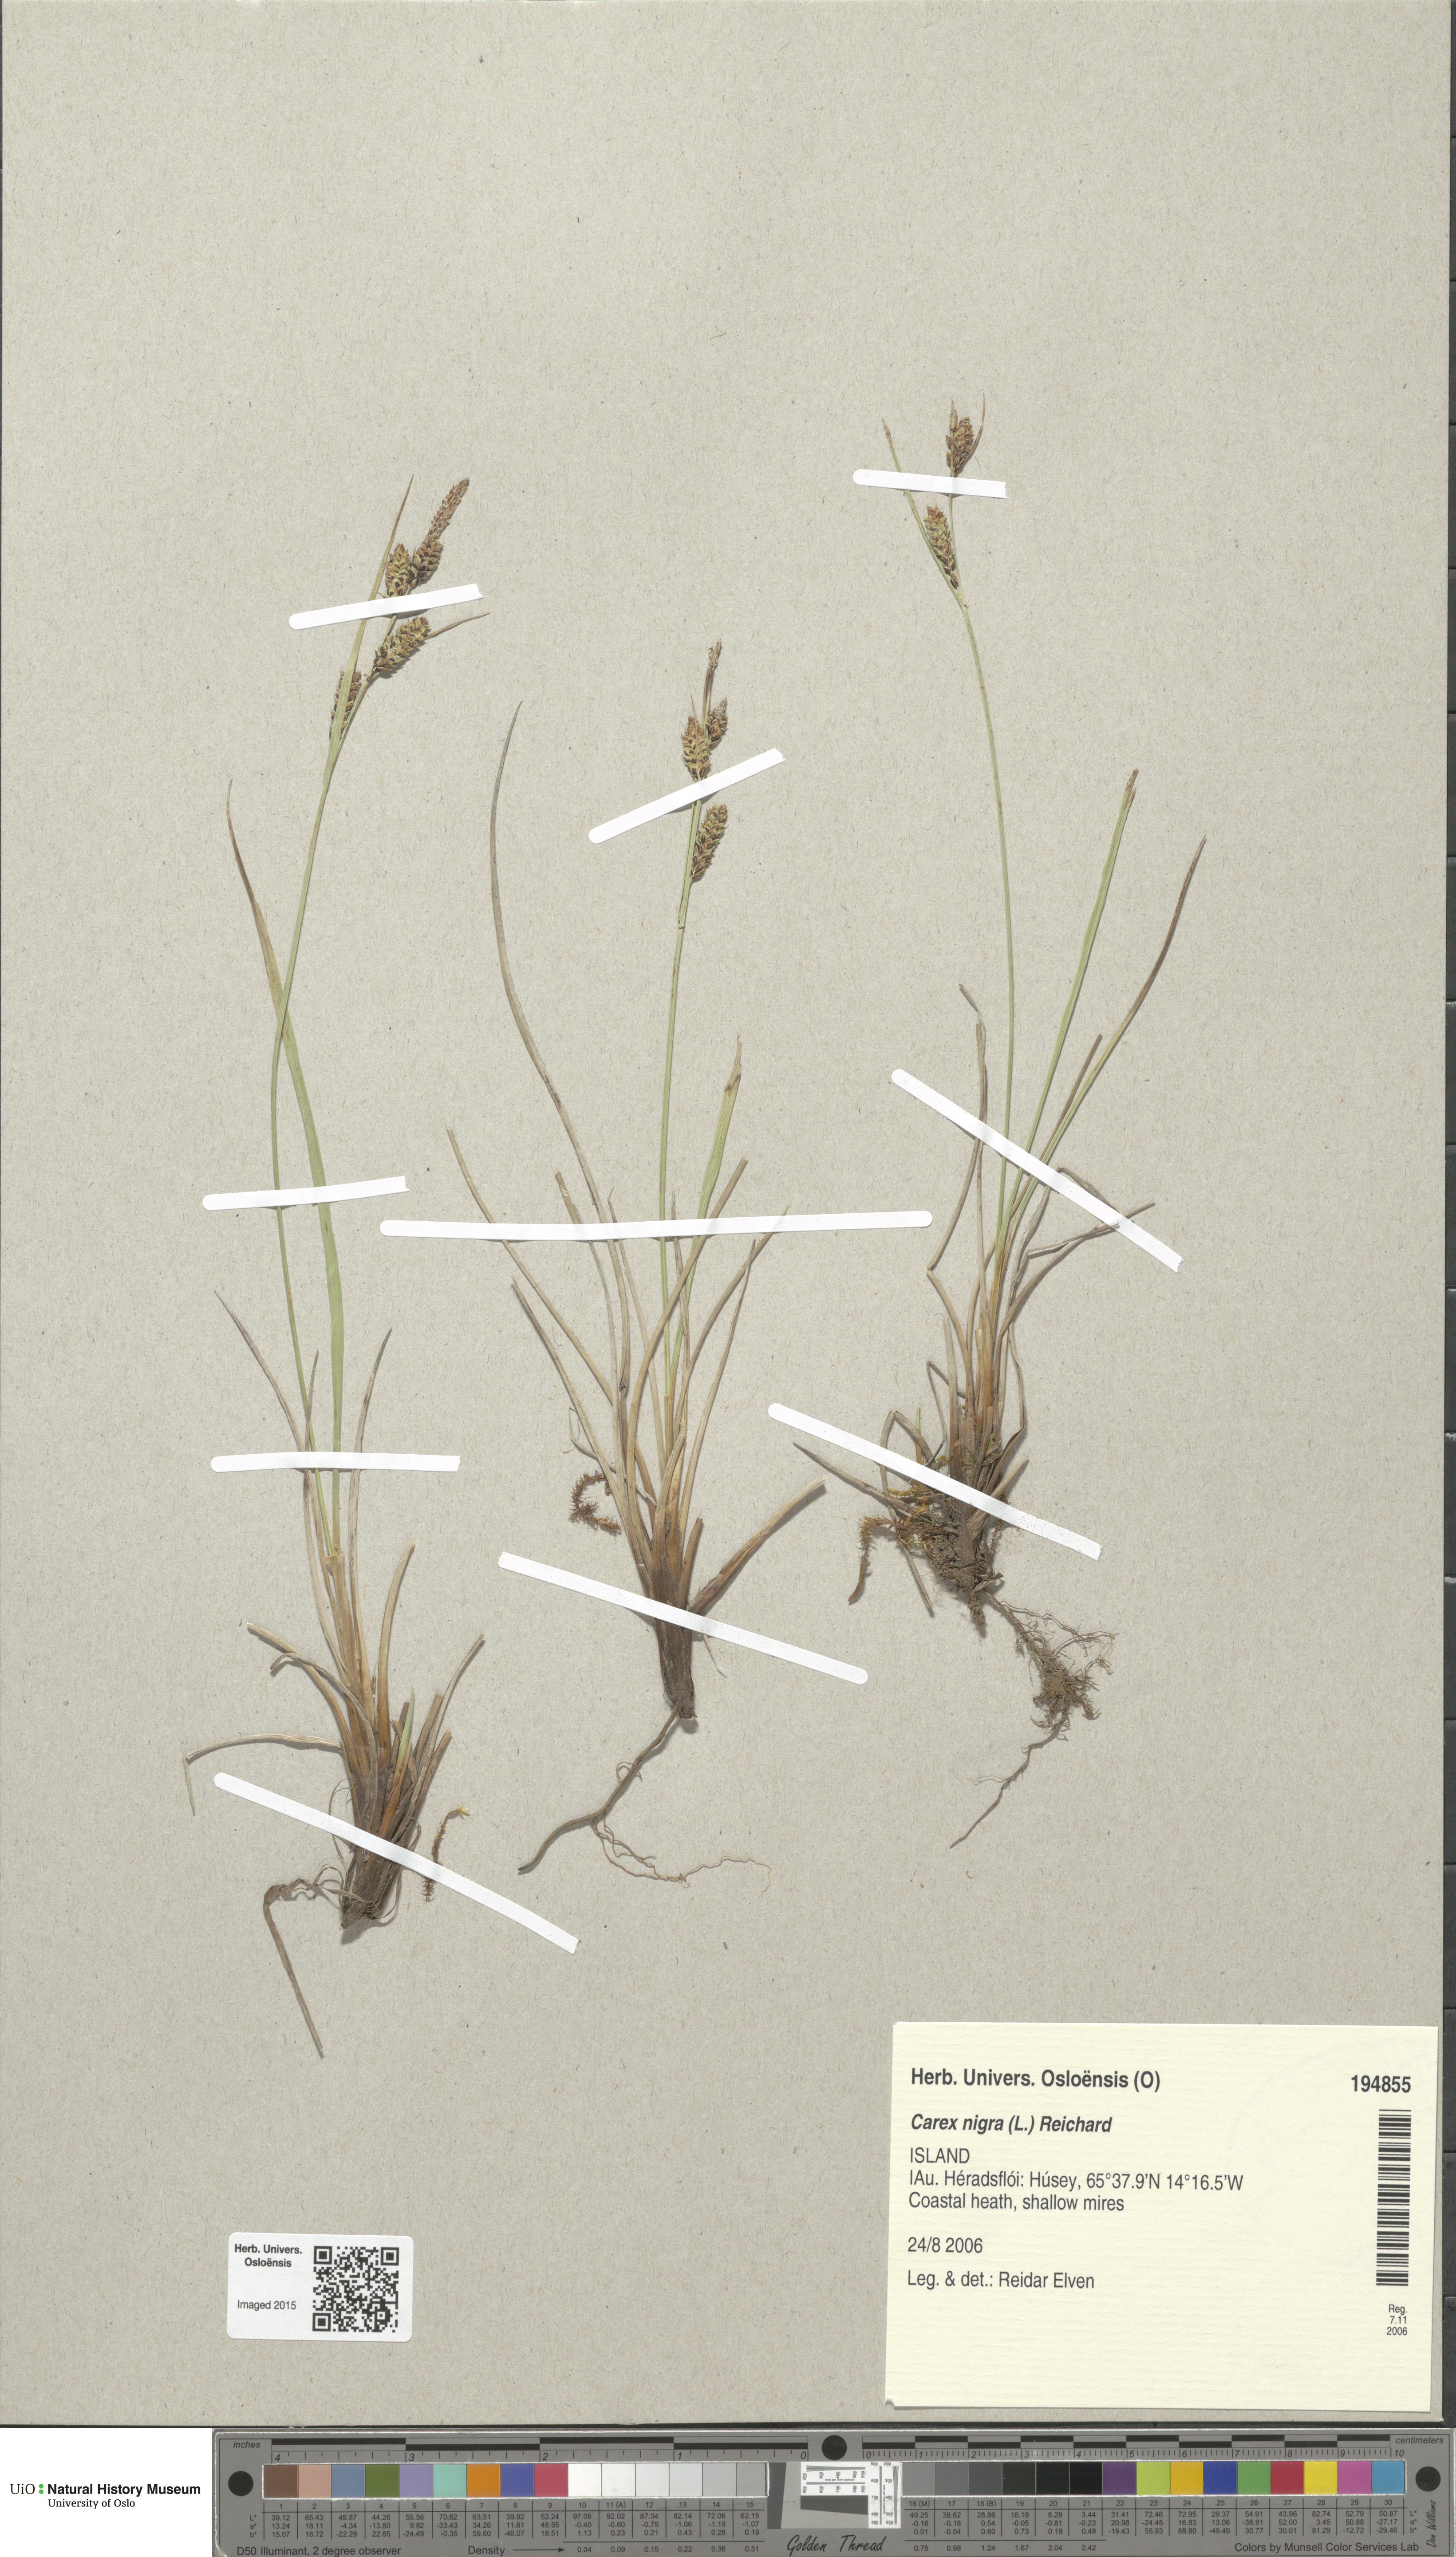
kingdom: Plantae
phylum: Tracheophyta
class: Liliopsida
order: Poales
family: Cyperaceae
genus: Carex
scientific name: Carex nigra
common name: Common sedge
